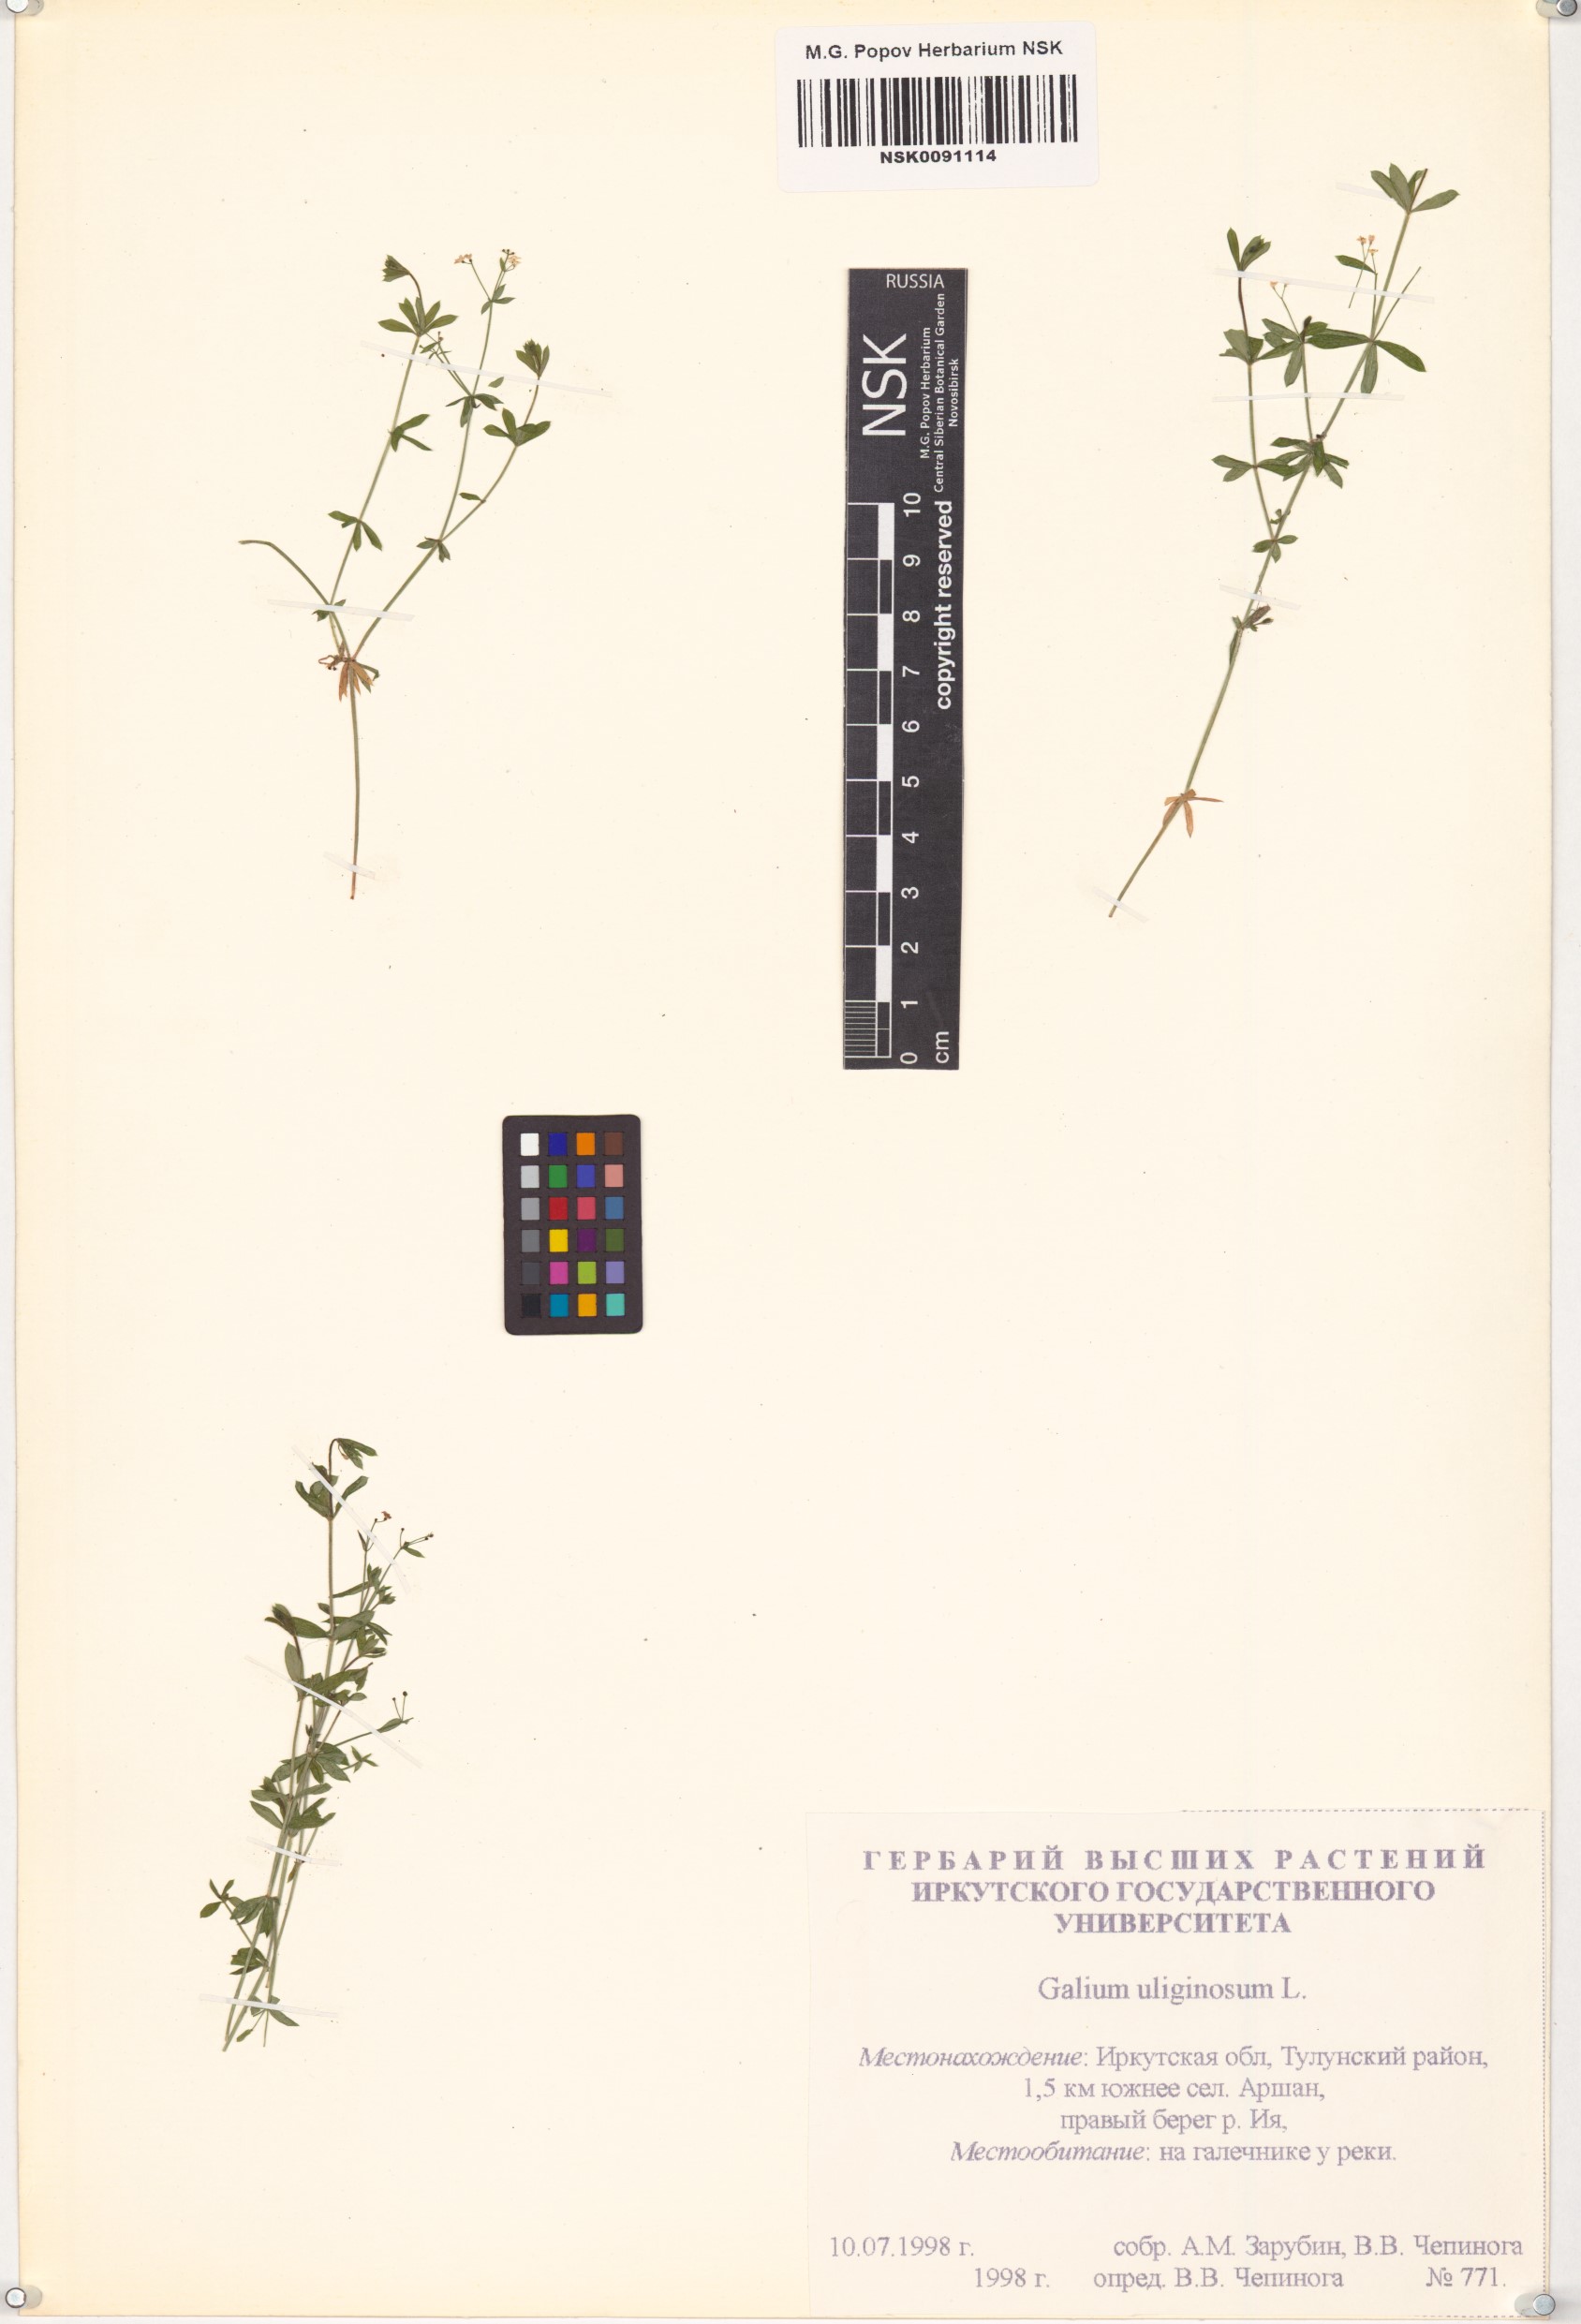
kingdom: Plantae
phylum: Tracheophyta
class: Magnoliopsida
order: Gentianales
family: Rubiaceae
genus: Galium
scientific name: Galium uliginosum
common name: Fen bedstraw
